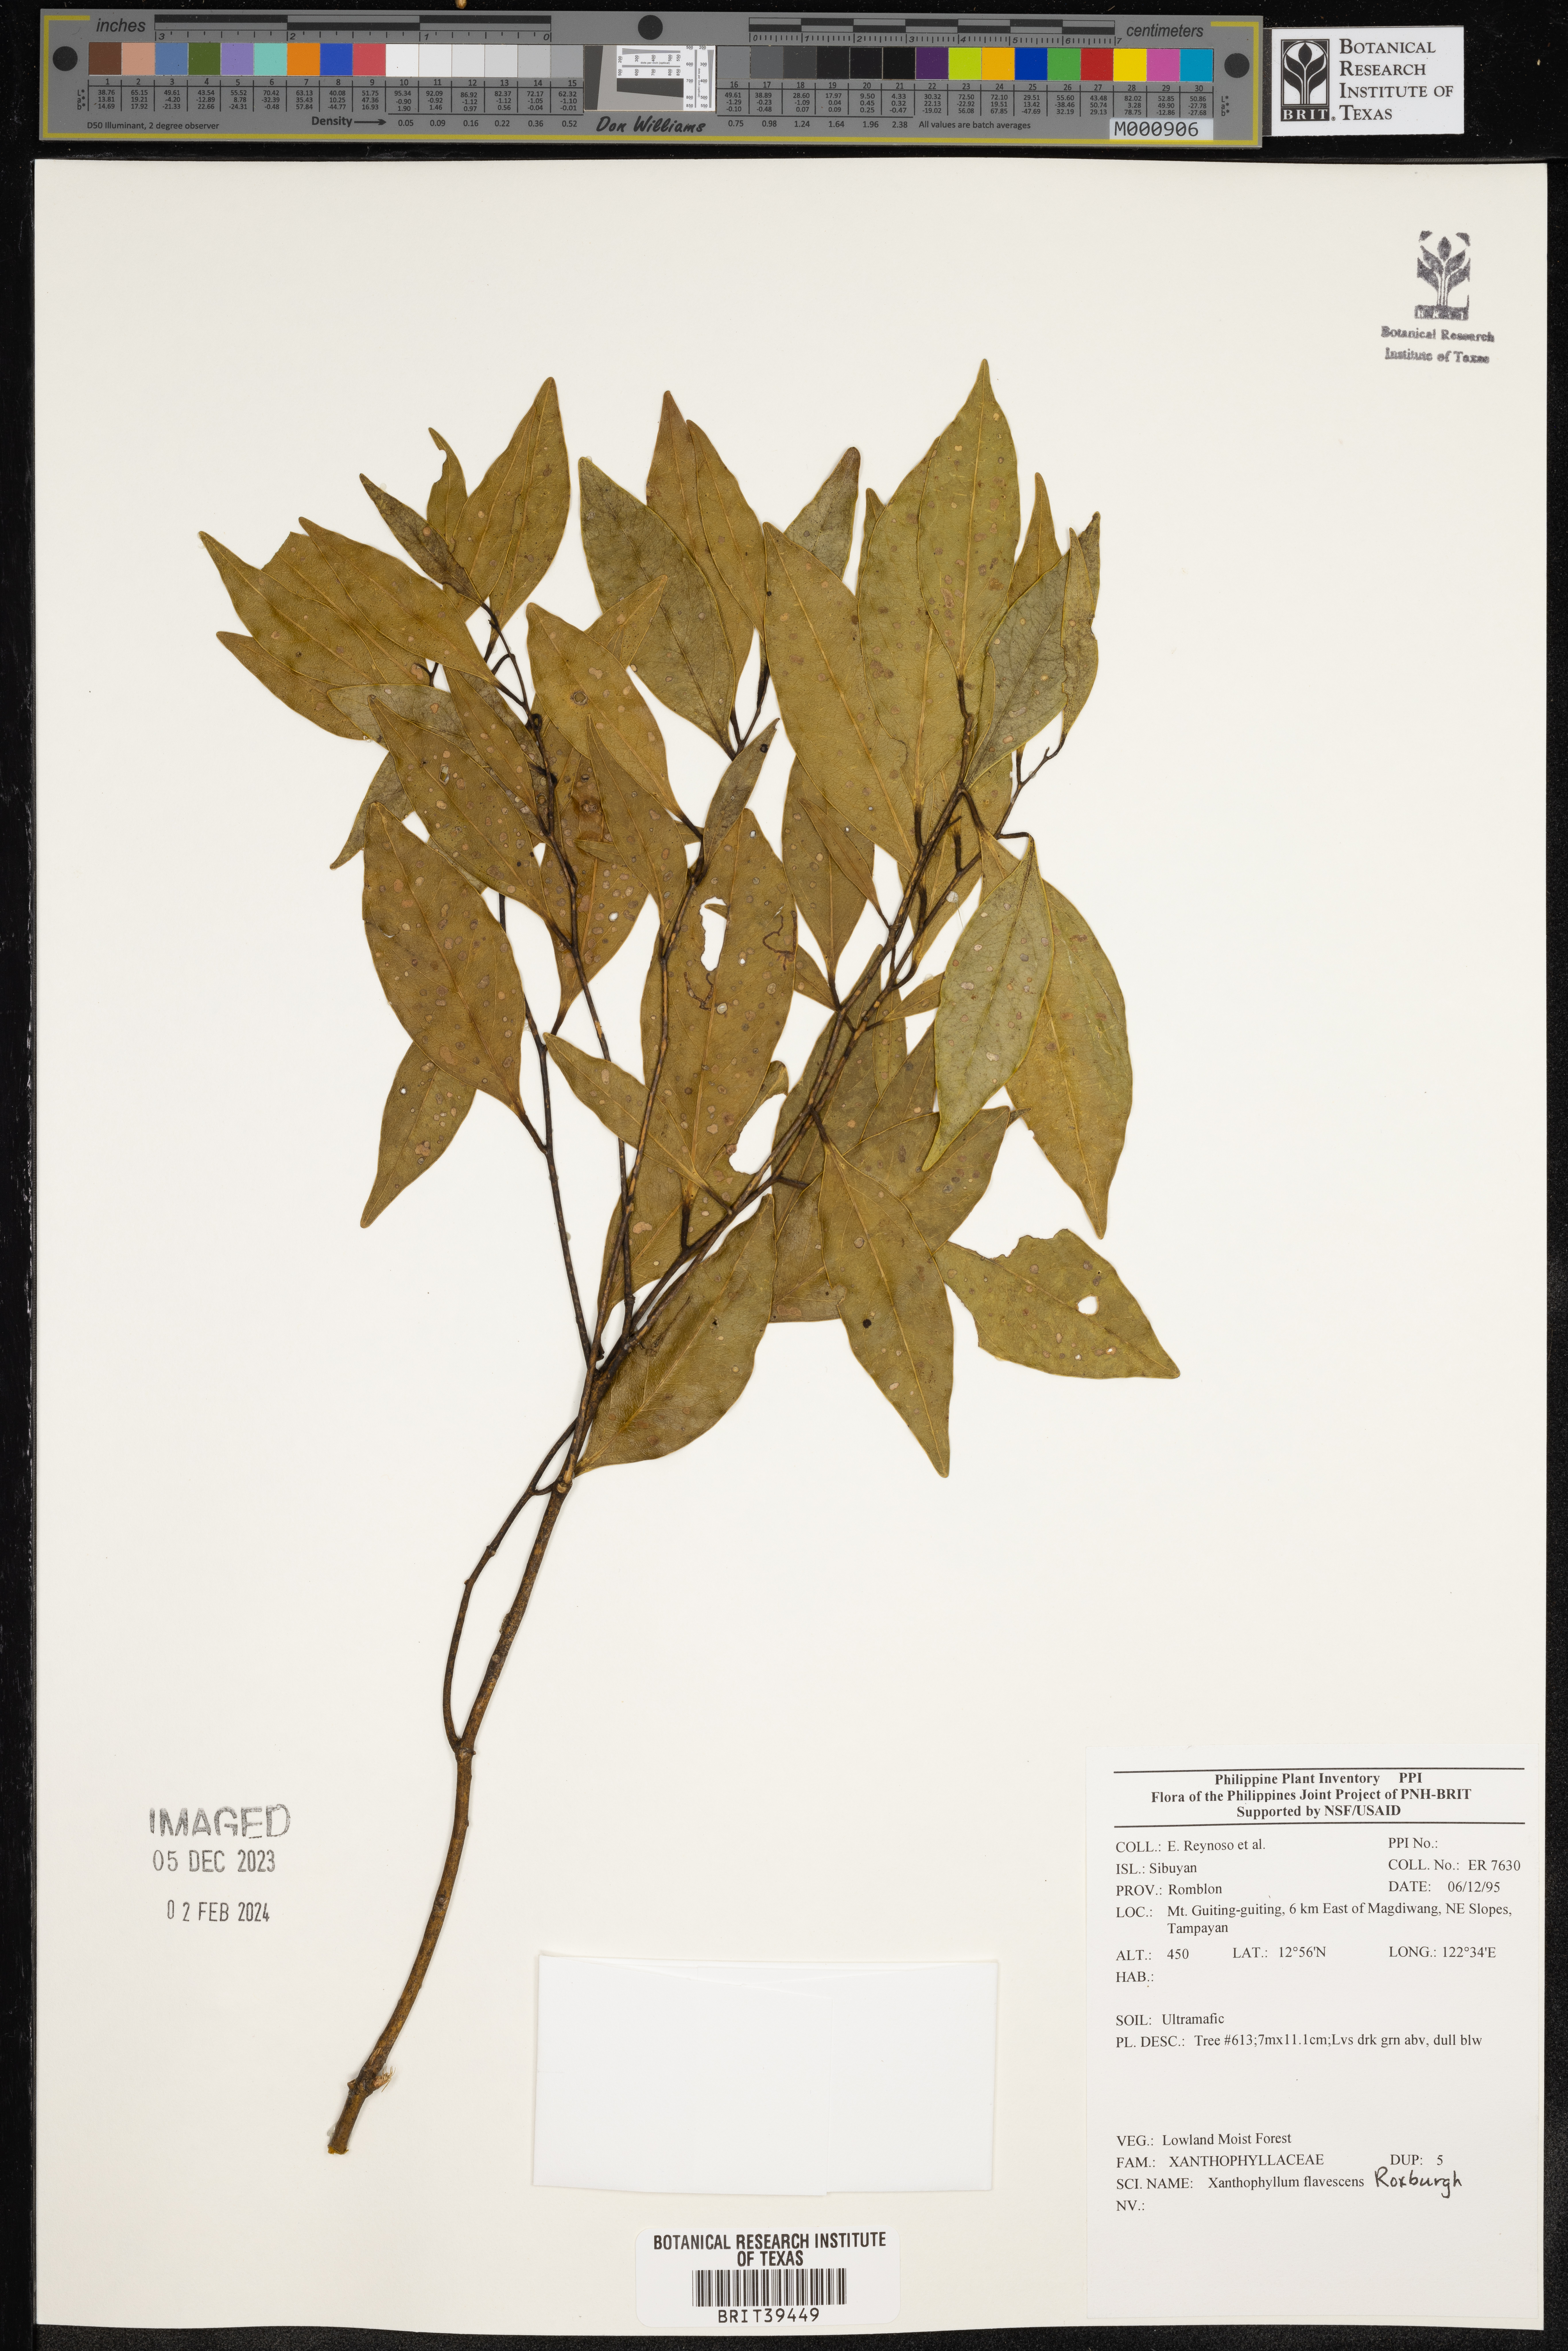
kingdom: Plantae
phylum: Tracheophyta
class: Magnoliopsida
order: Fabales
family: Polygalaceae
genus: Xanthophyllum
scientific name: Xanthophyllum flavescens
